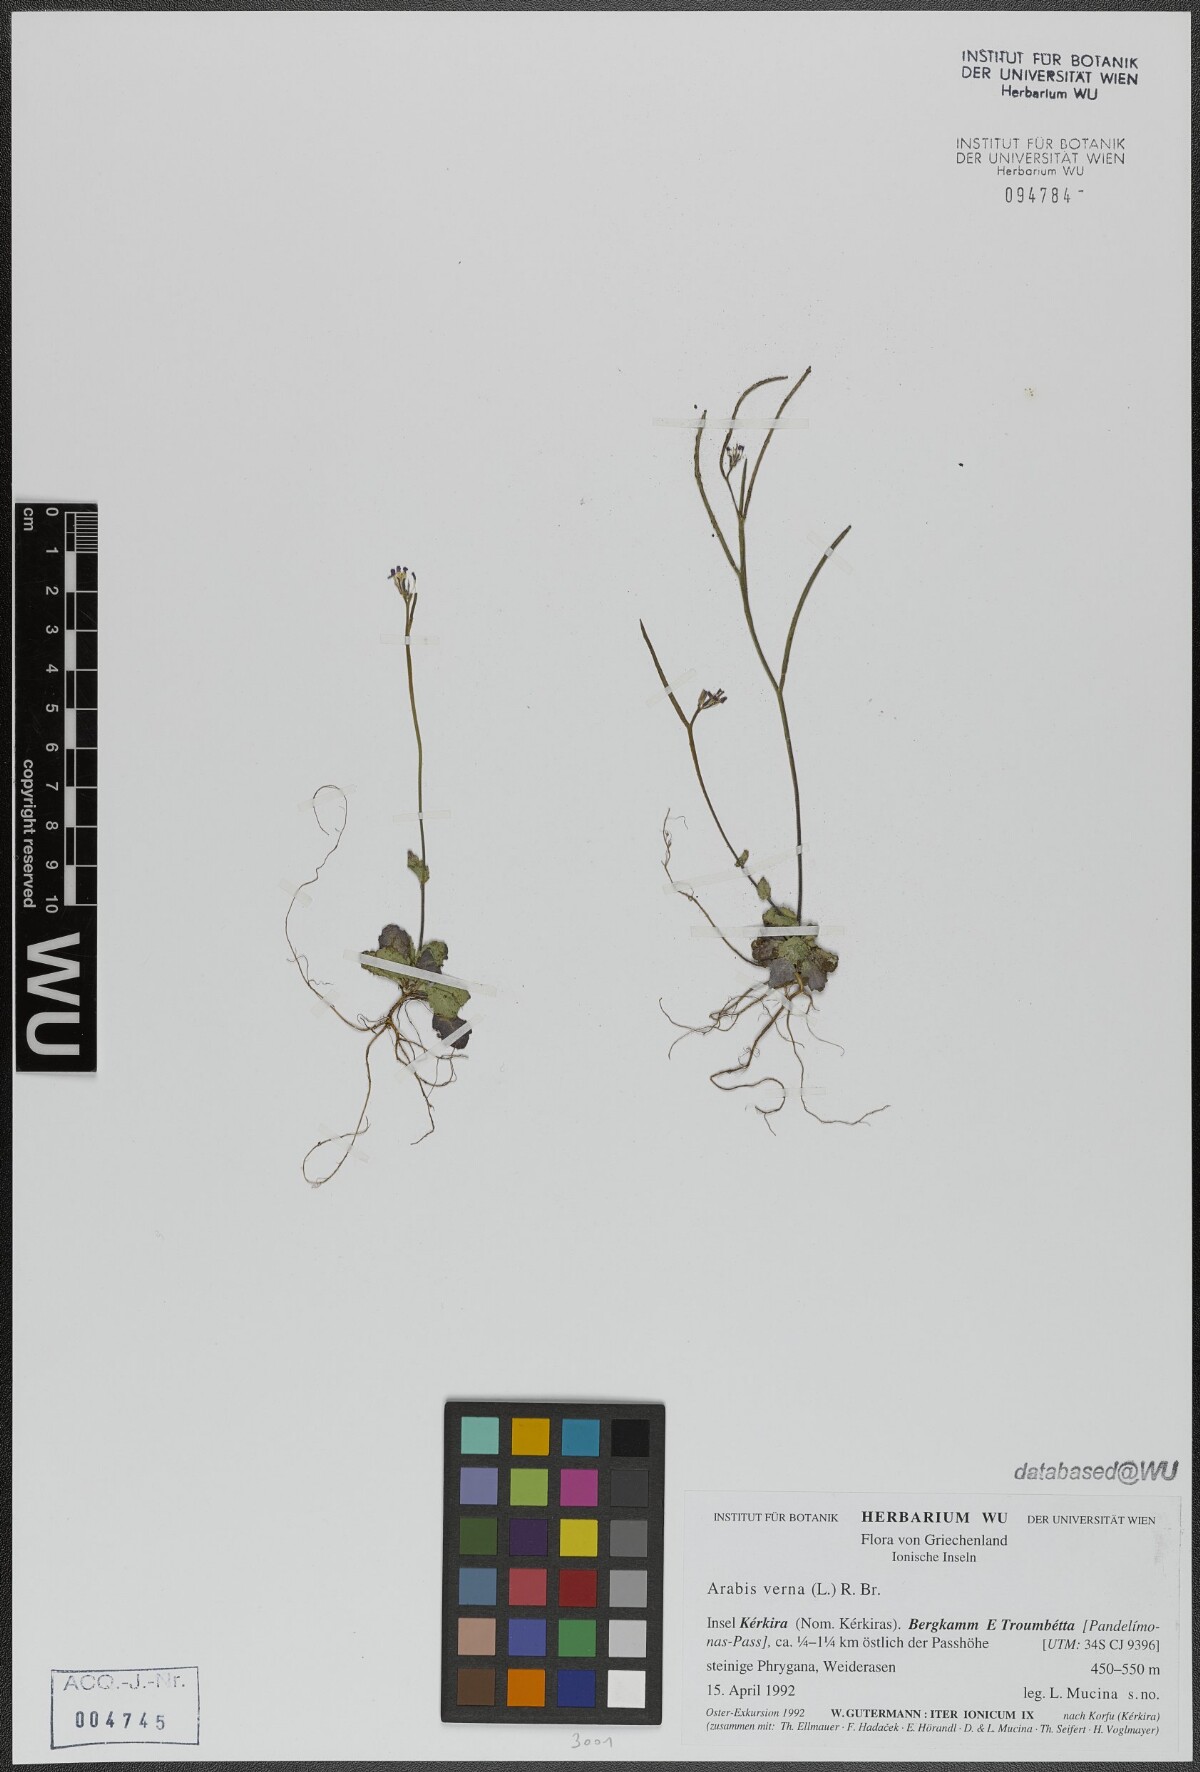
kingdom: Plantae
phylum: Tracheophyta
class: Magnoliopsida
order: Brassicales
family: Brassicaceae
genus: Arabis
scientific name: Arabis verna
